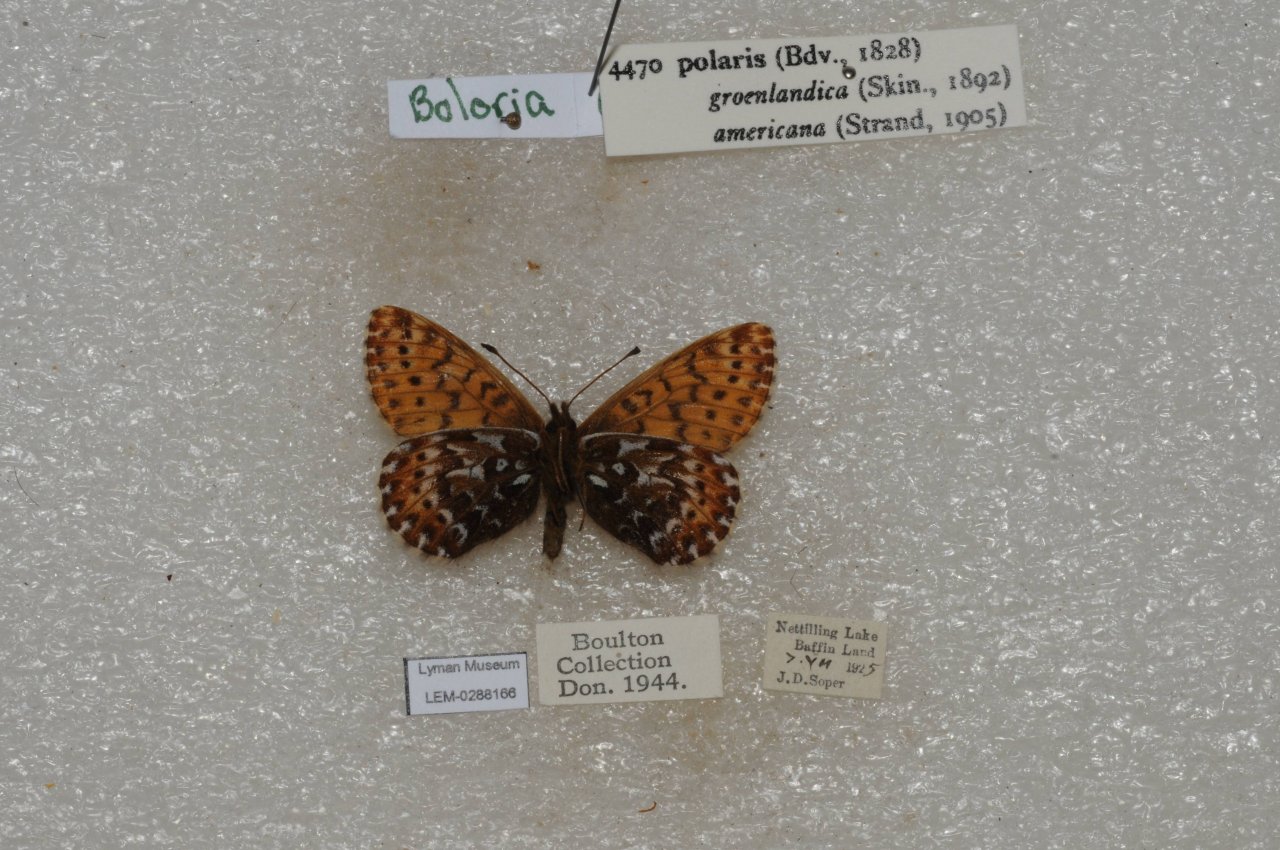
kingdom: Animalia
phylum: Arthropoda
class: Insecta
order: Lepidoptera
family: Nymphalidae
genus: Clossiana
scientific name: Clossiana polaris
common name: Polaris Fritillary
